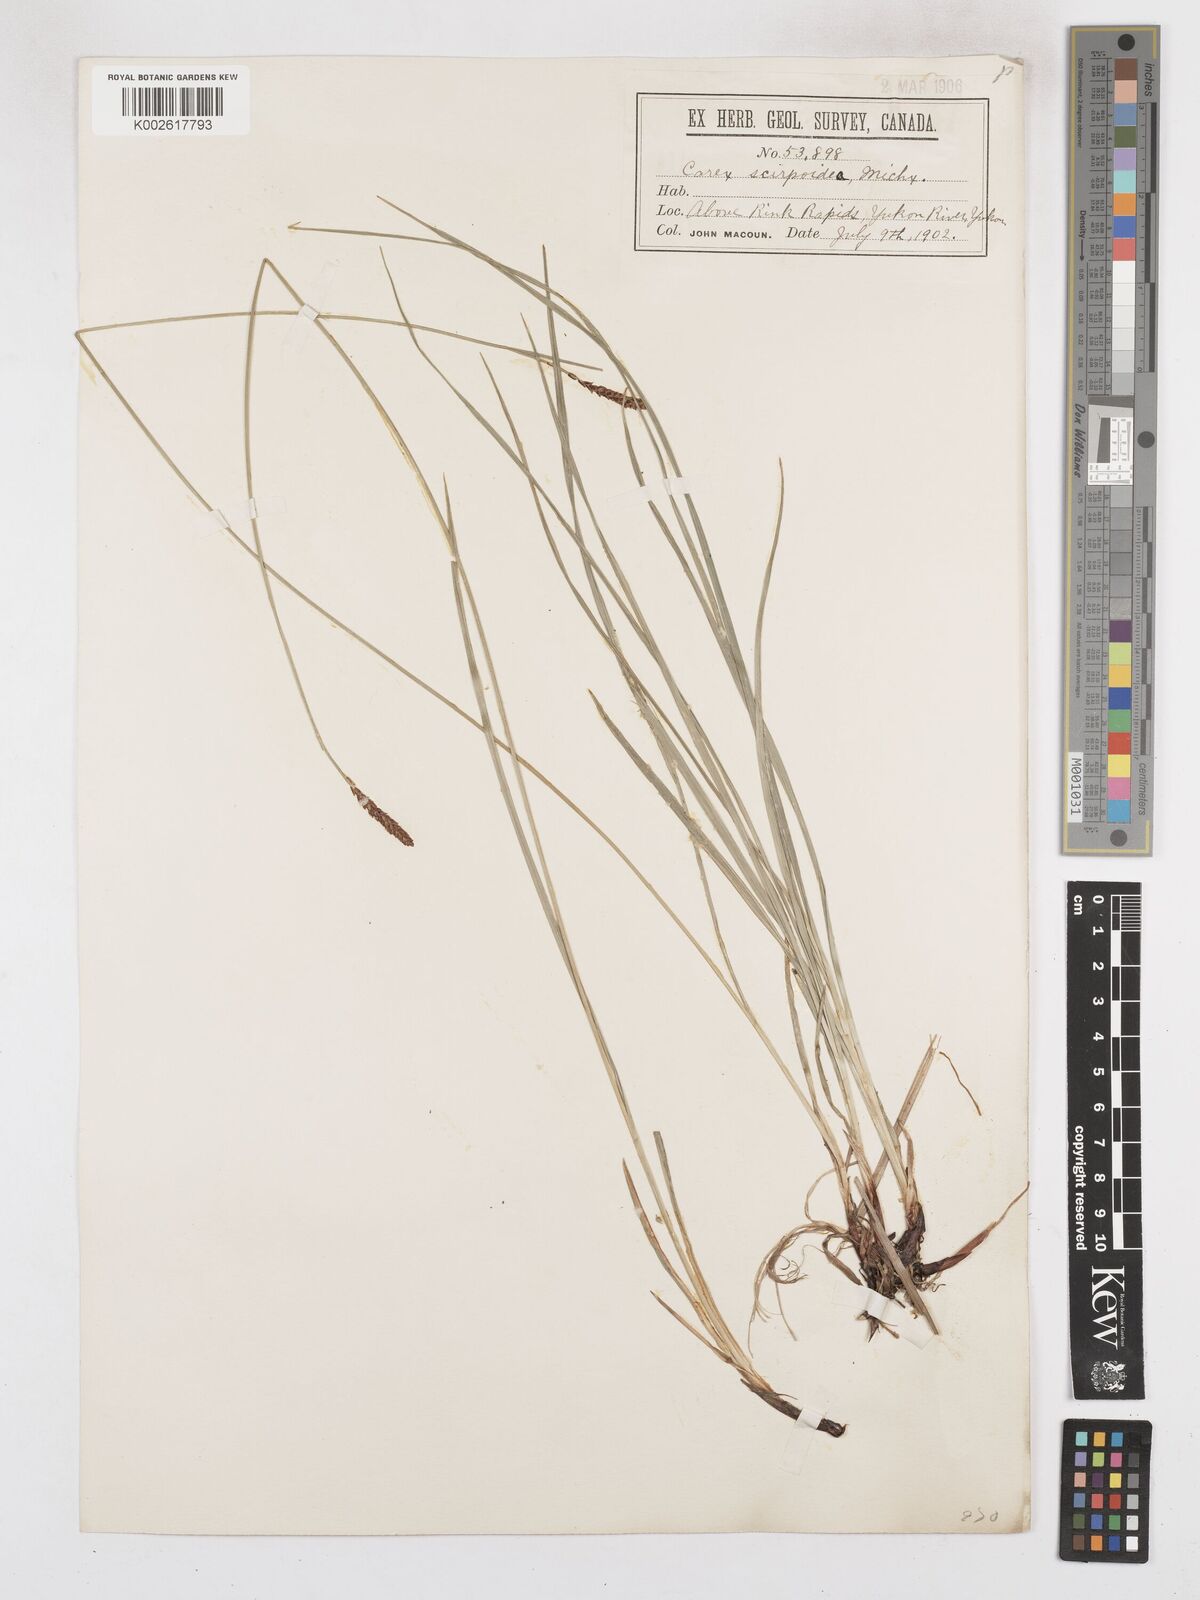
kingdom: Plantae
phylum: Tracheophyta
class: Liliopsida
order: Poales
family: Cyperaceae
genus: Carex
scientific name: Carex scirpoidea
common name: Canada single-spike sedge
